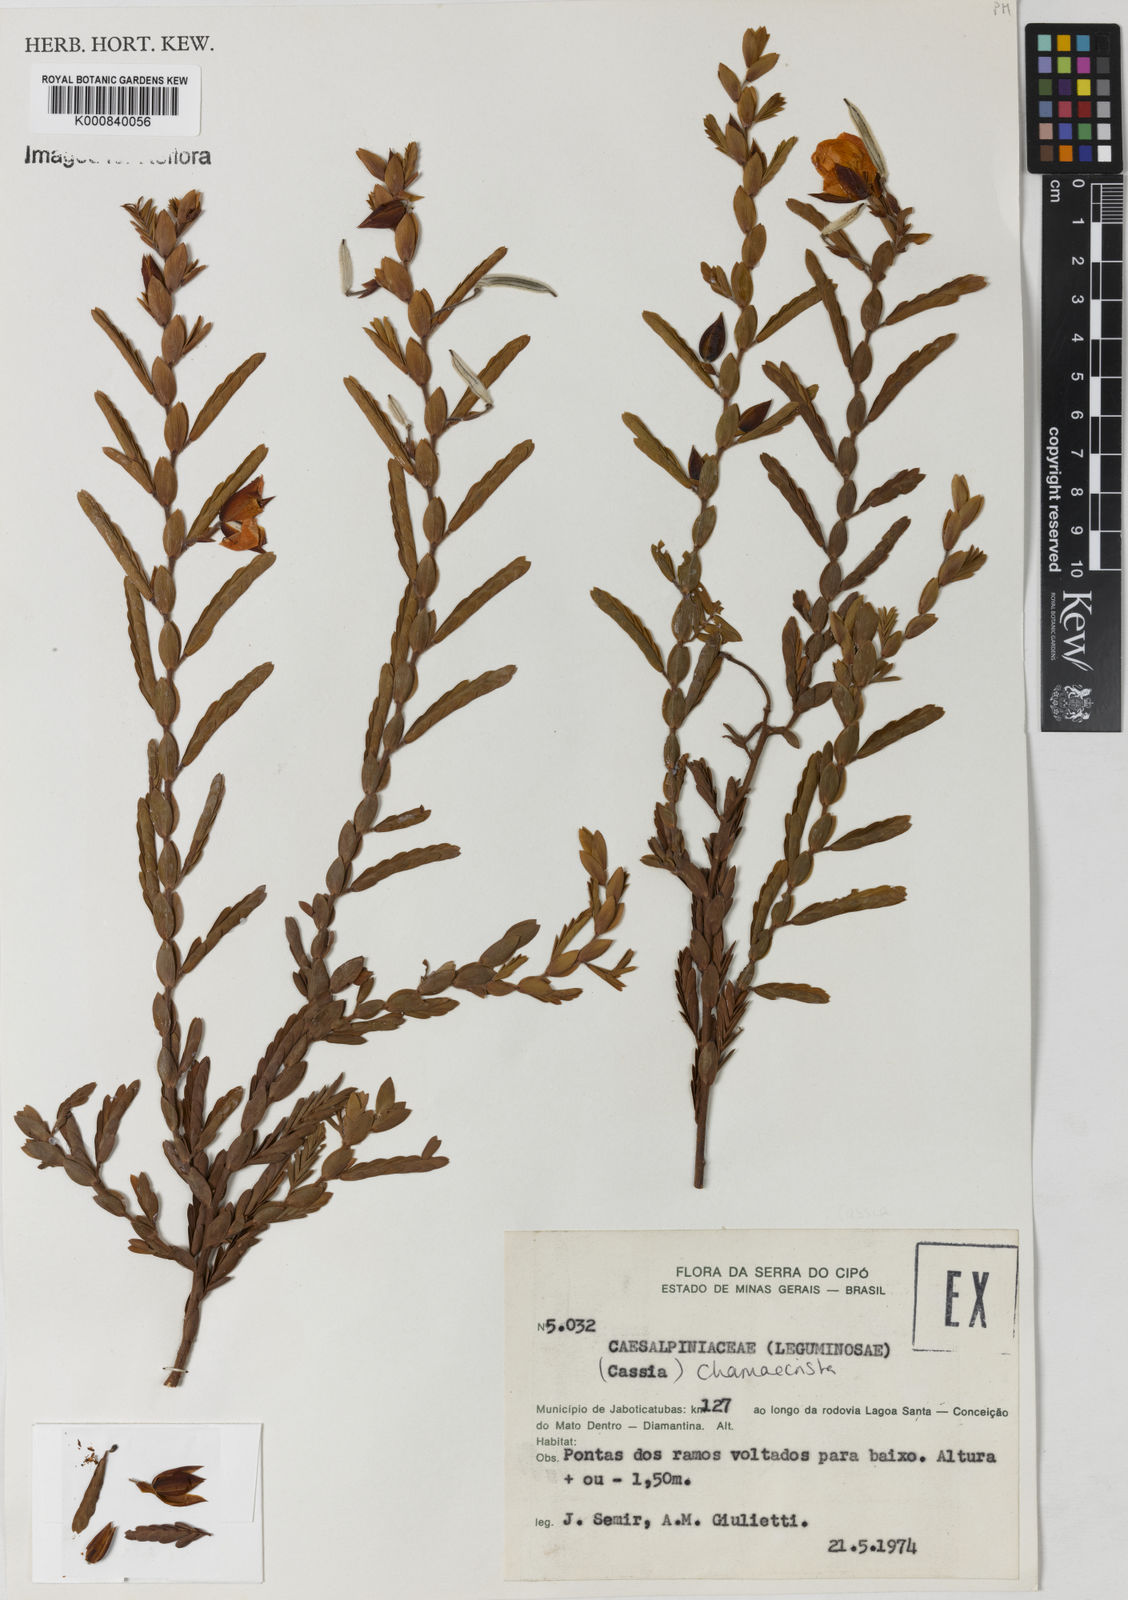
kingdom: Plantae
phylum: Tracheophyta
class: Magnoliopsida
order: Fabales
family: Fabaceae
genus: Chamaecrista
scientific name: Chamaecrista cinerascens
